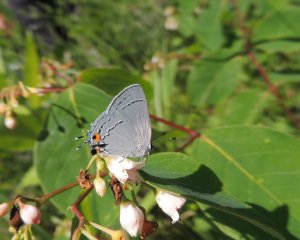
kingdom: Animalia
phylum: Arthropoda
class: Insecta
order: Lepidoptera
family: Lycaenidae
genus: Strymon
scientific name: Strymon melinus
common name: Gray Hairstreak
